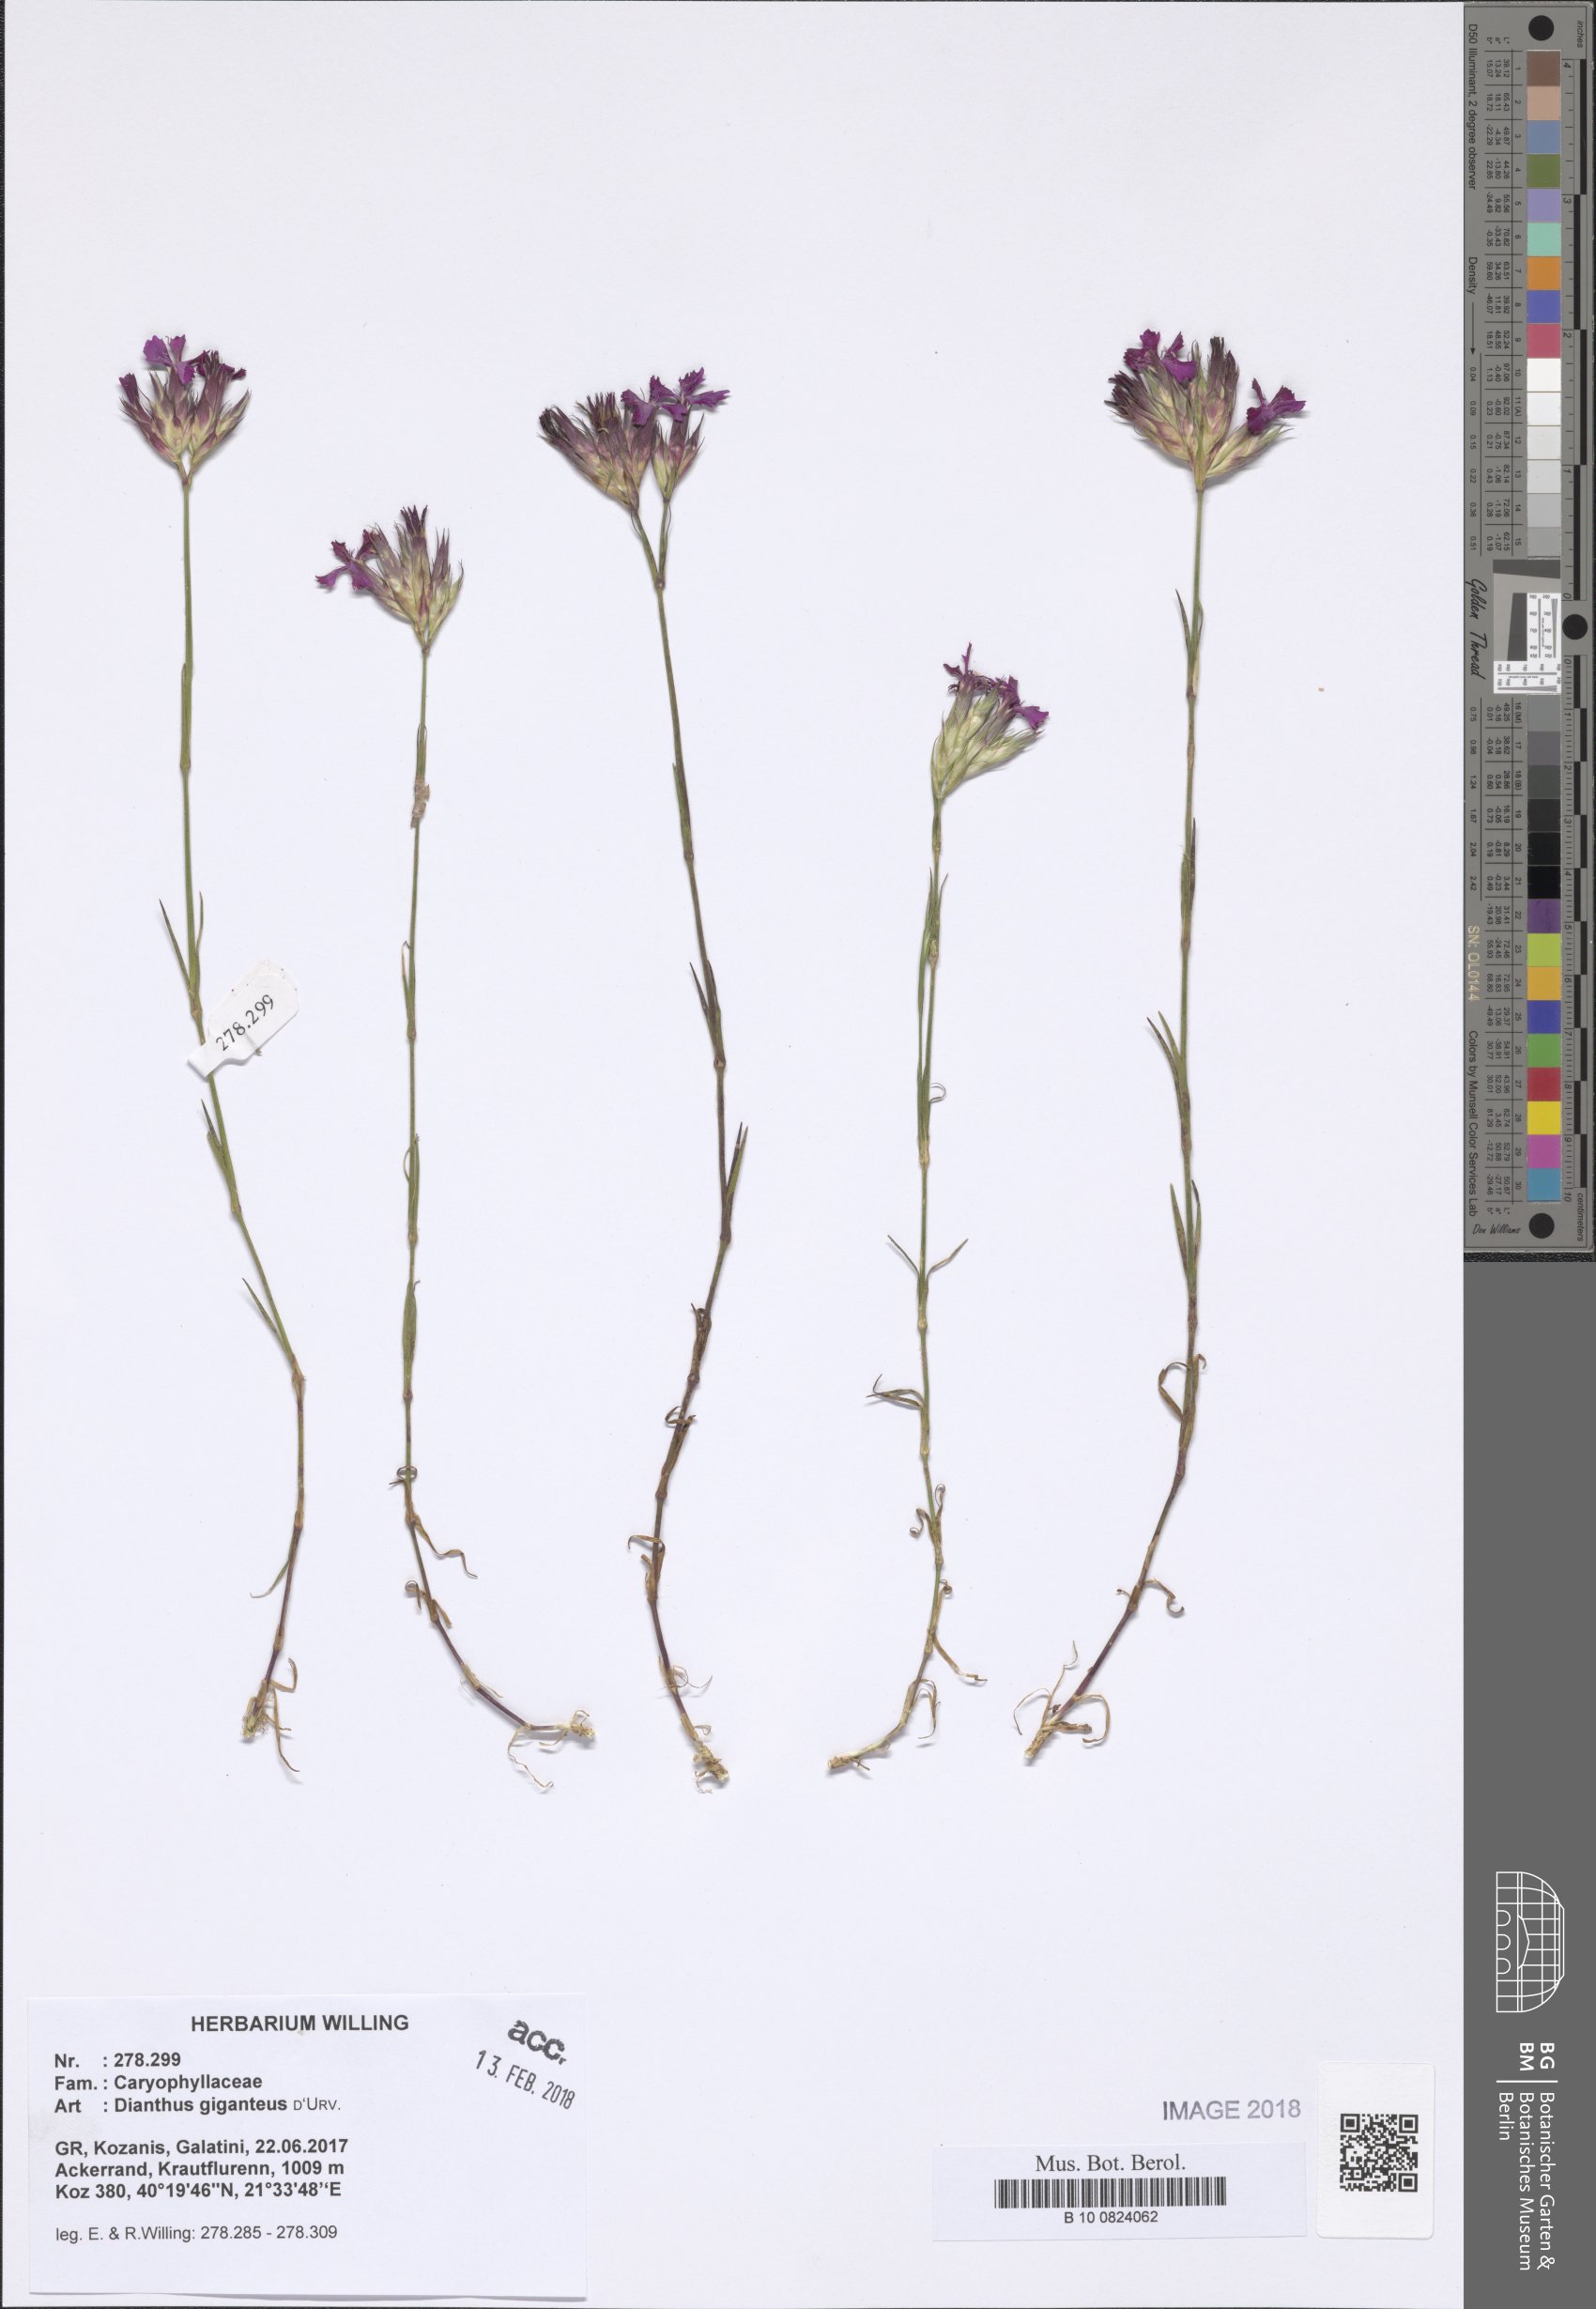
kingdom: Plantae
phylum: Tracheophyta
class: Magnoliopsida
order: Caryophyllales
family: Caryophyllaceae
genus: Dianthus
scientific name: Dianthus giganteus
